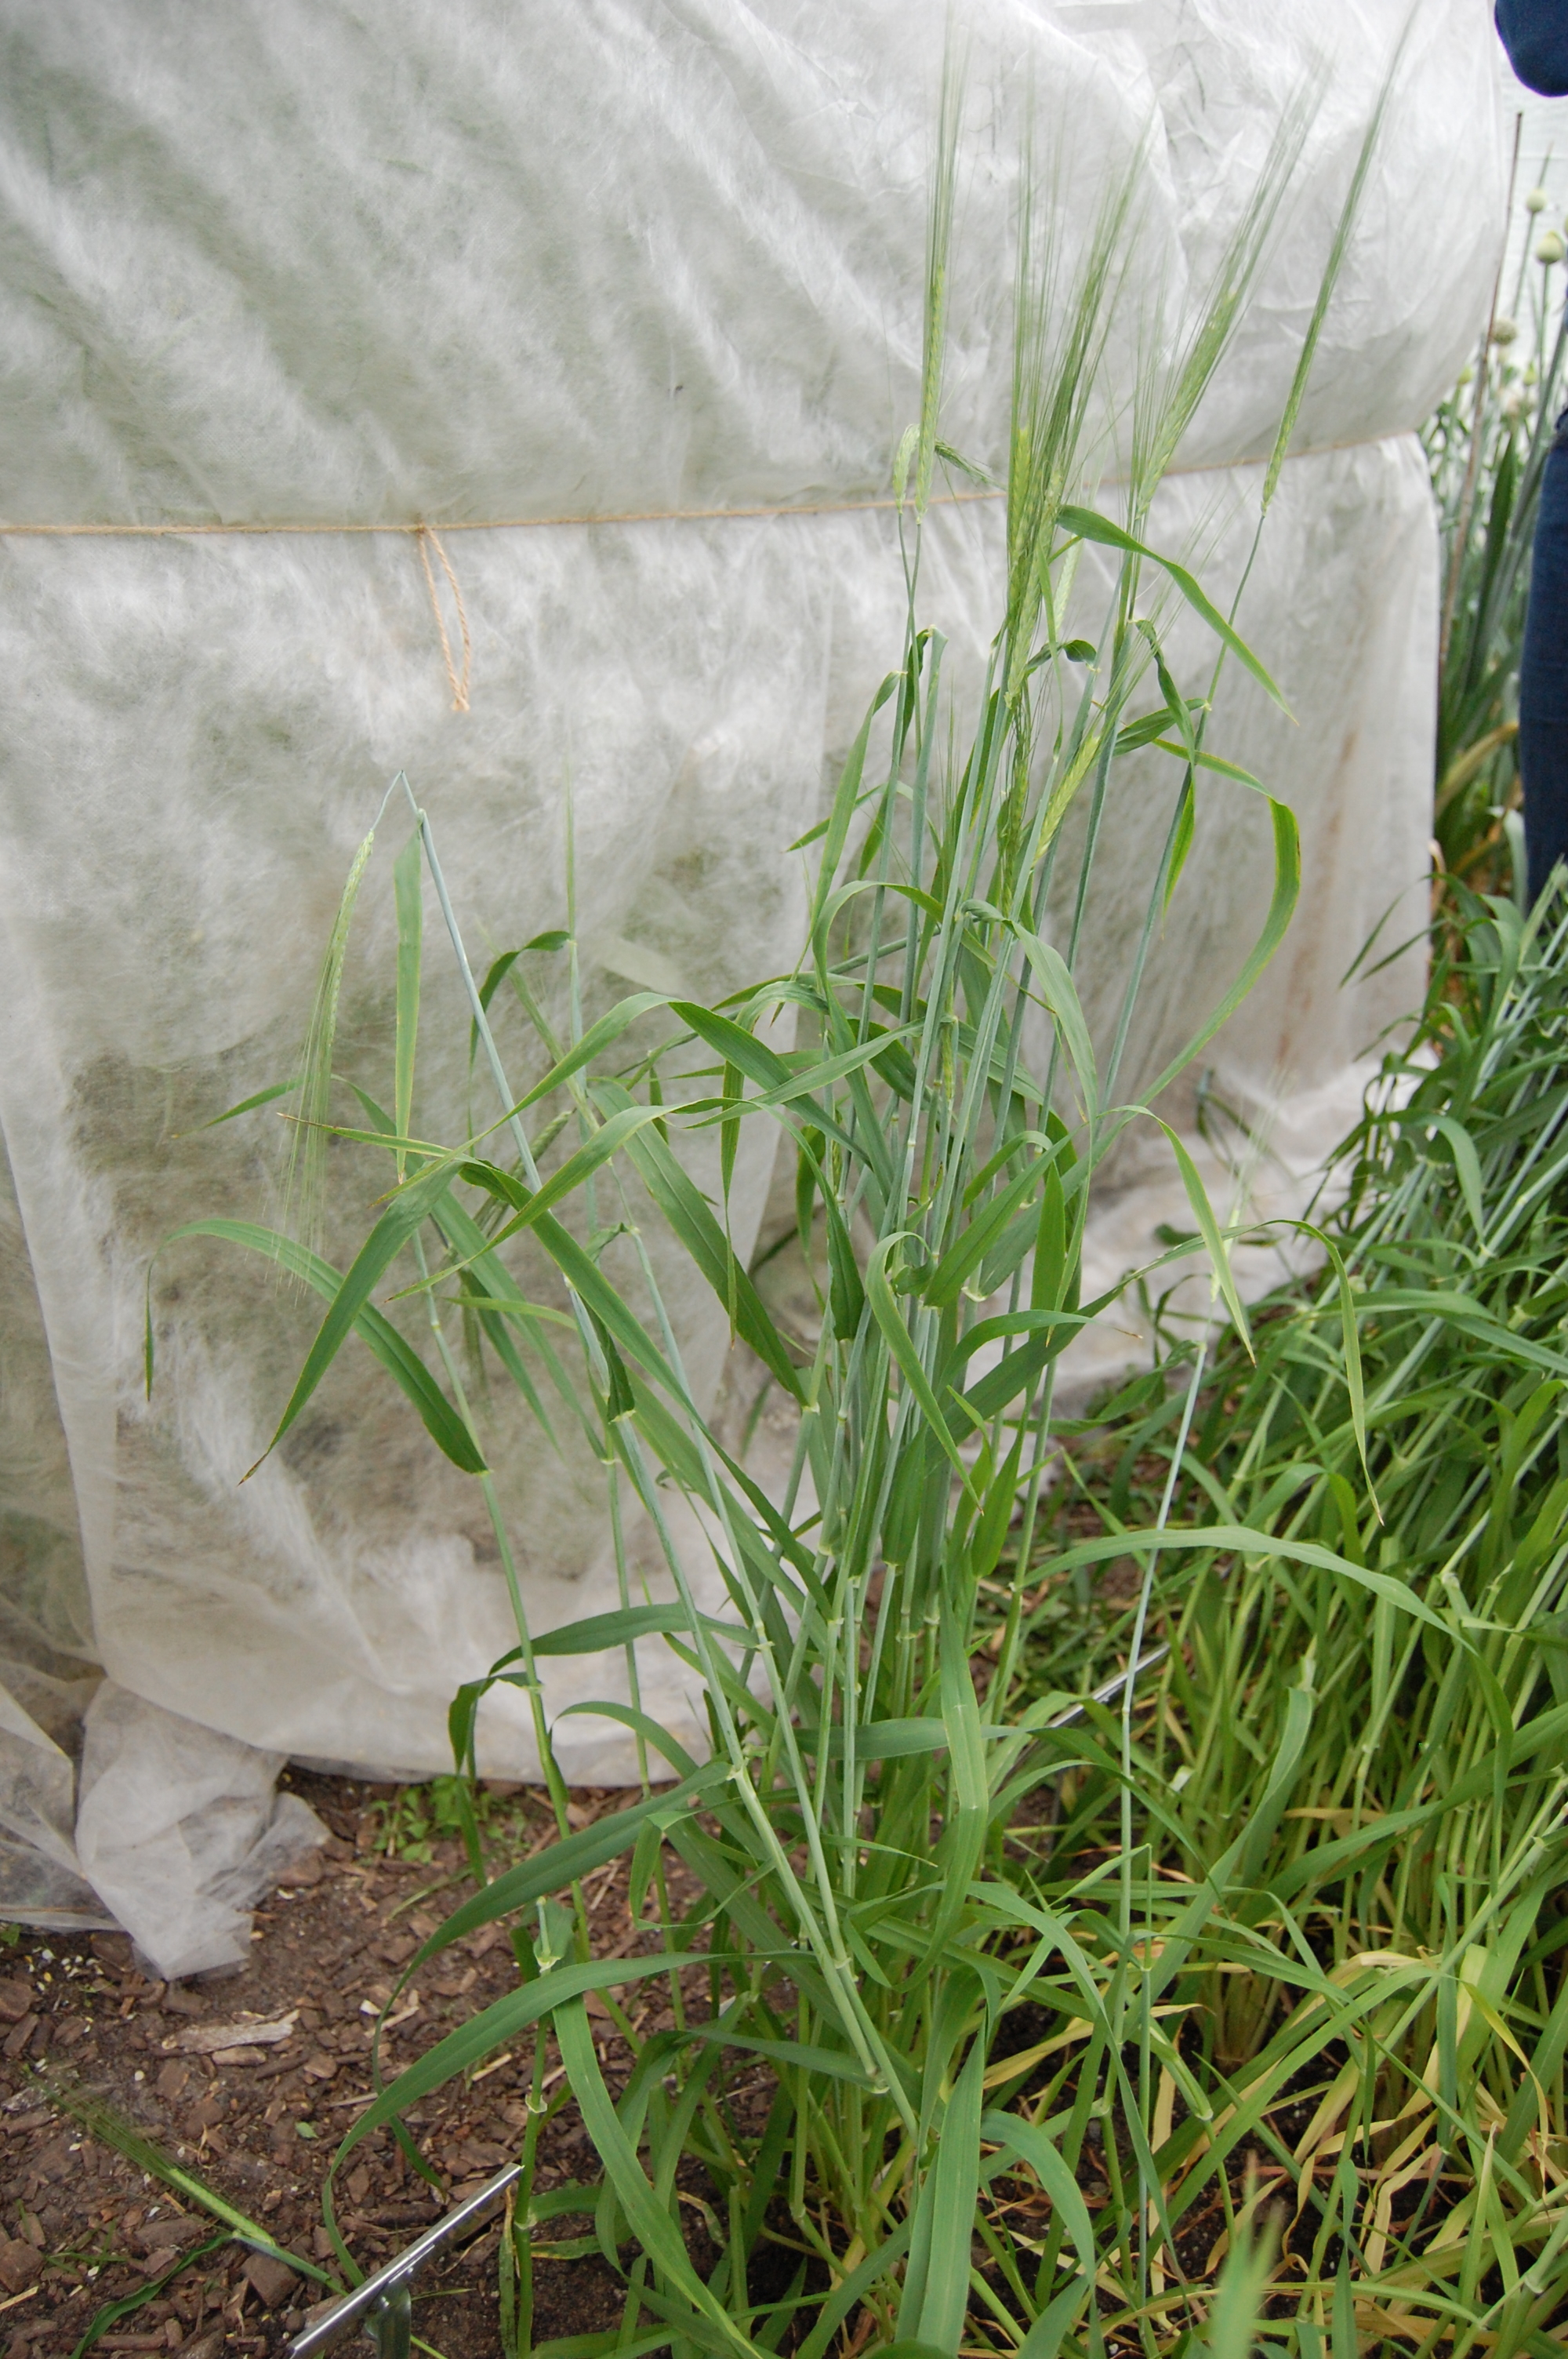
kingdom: Plantae
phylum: Tracheophyta
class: Liliopsida
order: Poales
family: Poaceae
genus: Hordeum
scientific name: Hordeum vulgare
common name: Common barley
